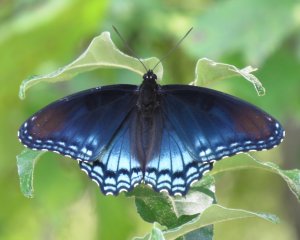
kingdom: Animalia
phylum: Arthropoda
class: Insecta
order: Lepidoptera
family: Nymphalidae
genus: Limenitis
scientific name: Limenitis astyanax
